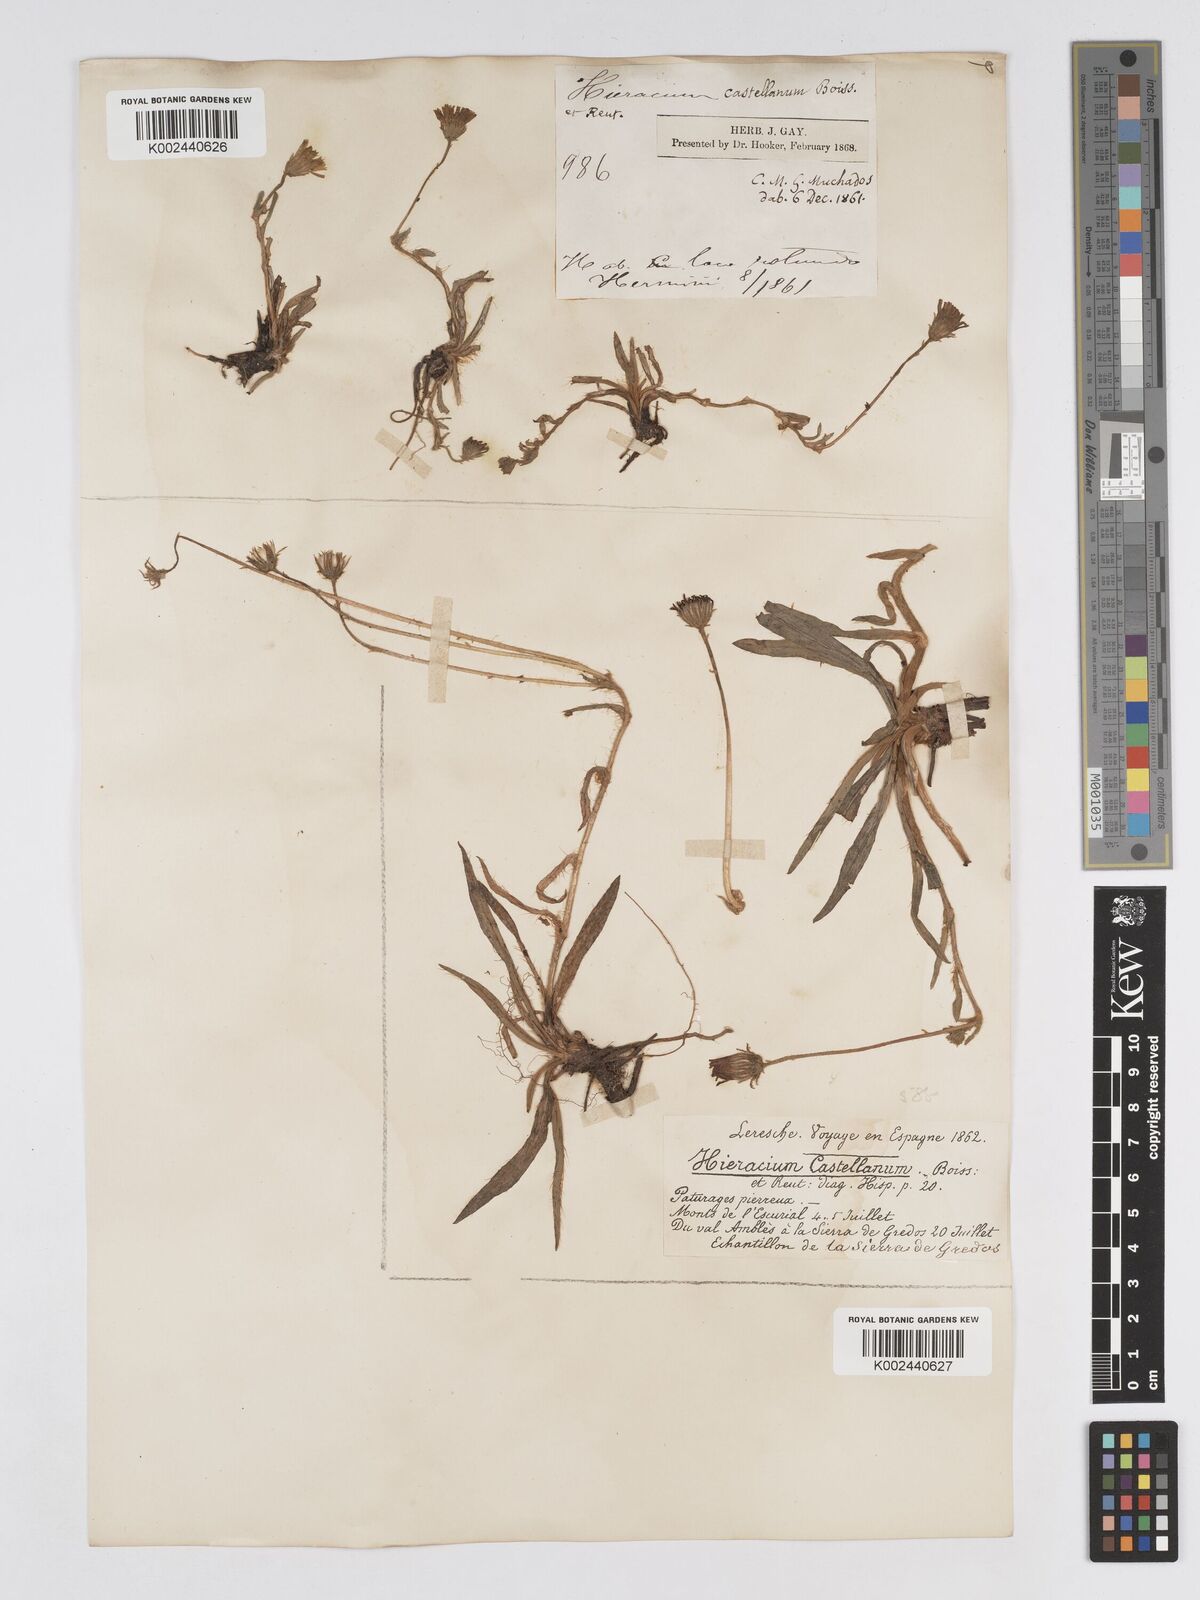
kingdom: Plantae
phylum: Tracheophyta
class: Magnoliopsida
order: Asterales
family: Asteraceae
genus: Pilosella
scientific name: Pilosella castellana
